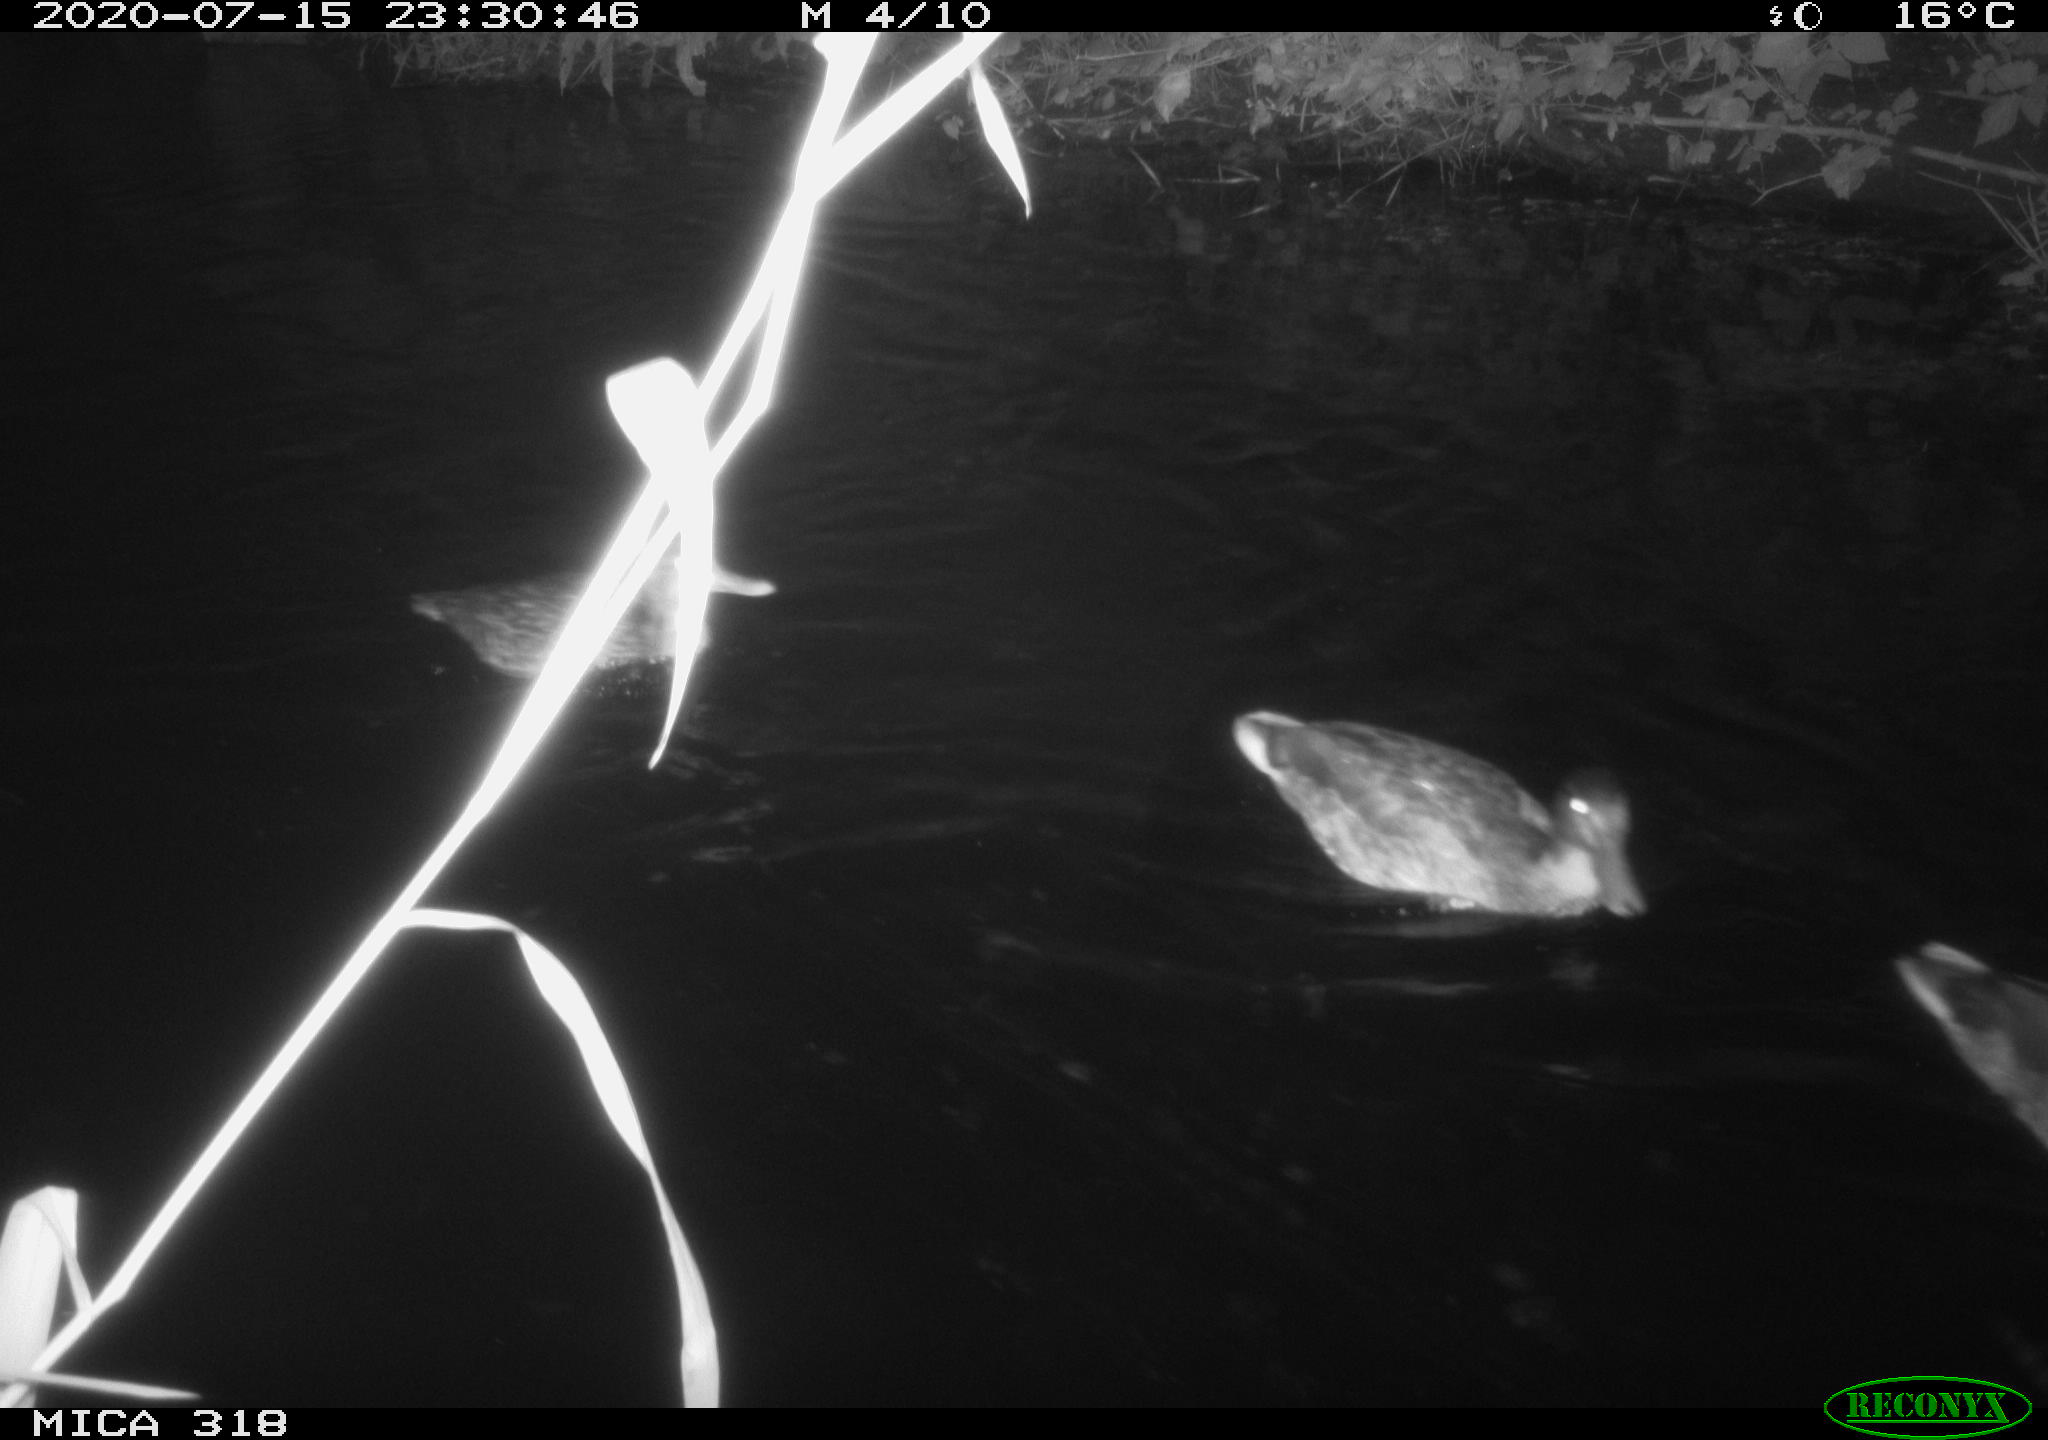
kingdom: Animalia
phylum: Chordata
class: Aves
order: Anseriformes
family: Anatidae
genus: Mareca
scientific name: Mareca strepera
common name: Gadwall
